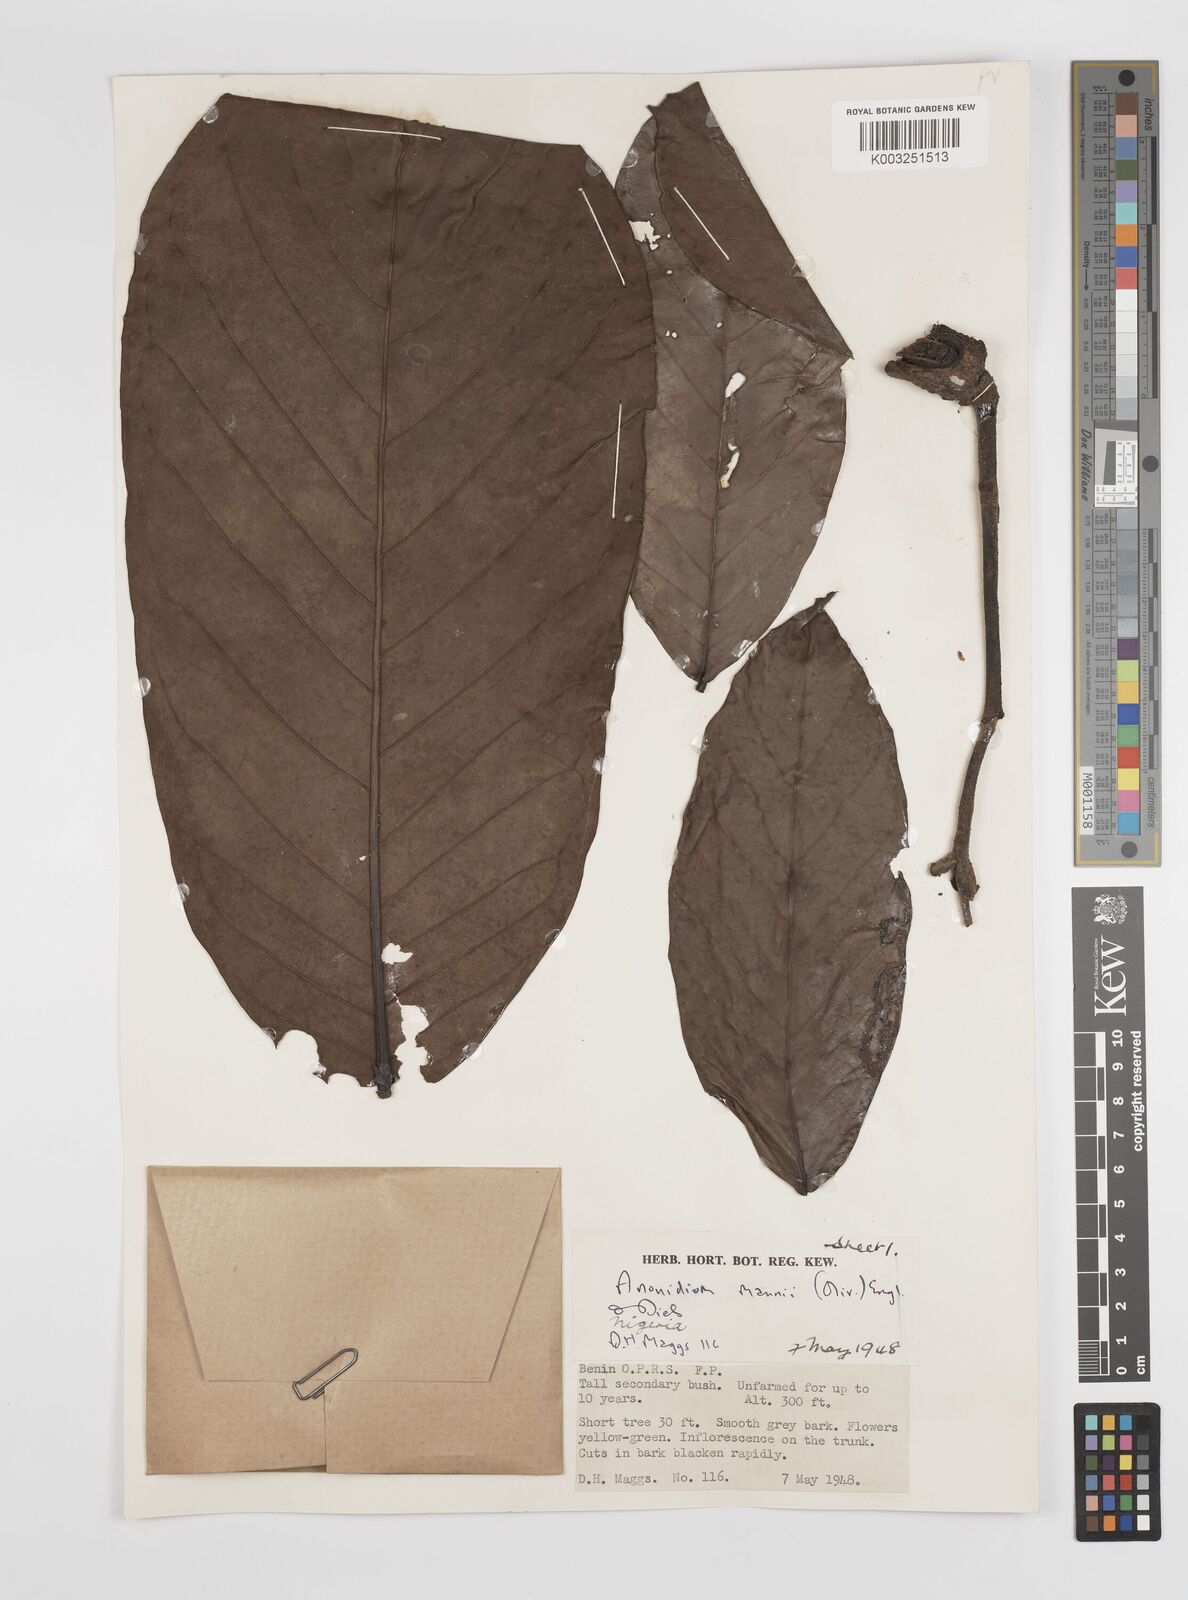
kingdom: Plantae
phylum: Tracheophyta
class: Magnoliopsida
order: Magnoliales
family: Annonaceae
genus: Anonidium
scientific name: Anonidium mannii
